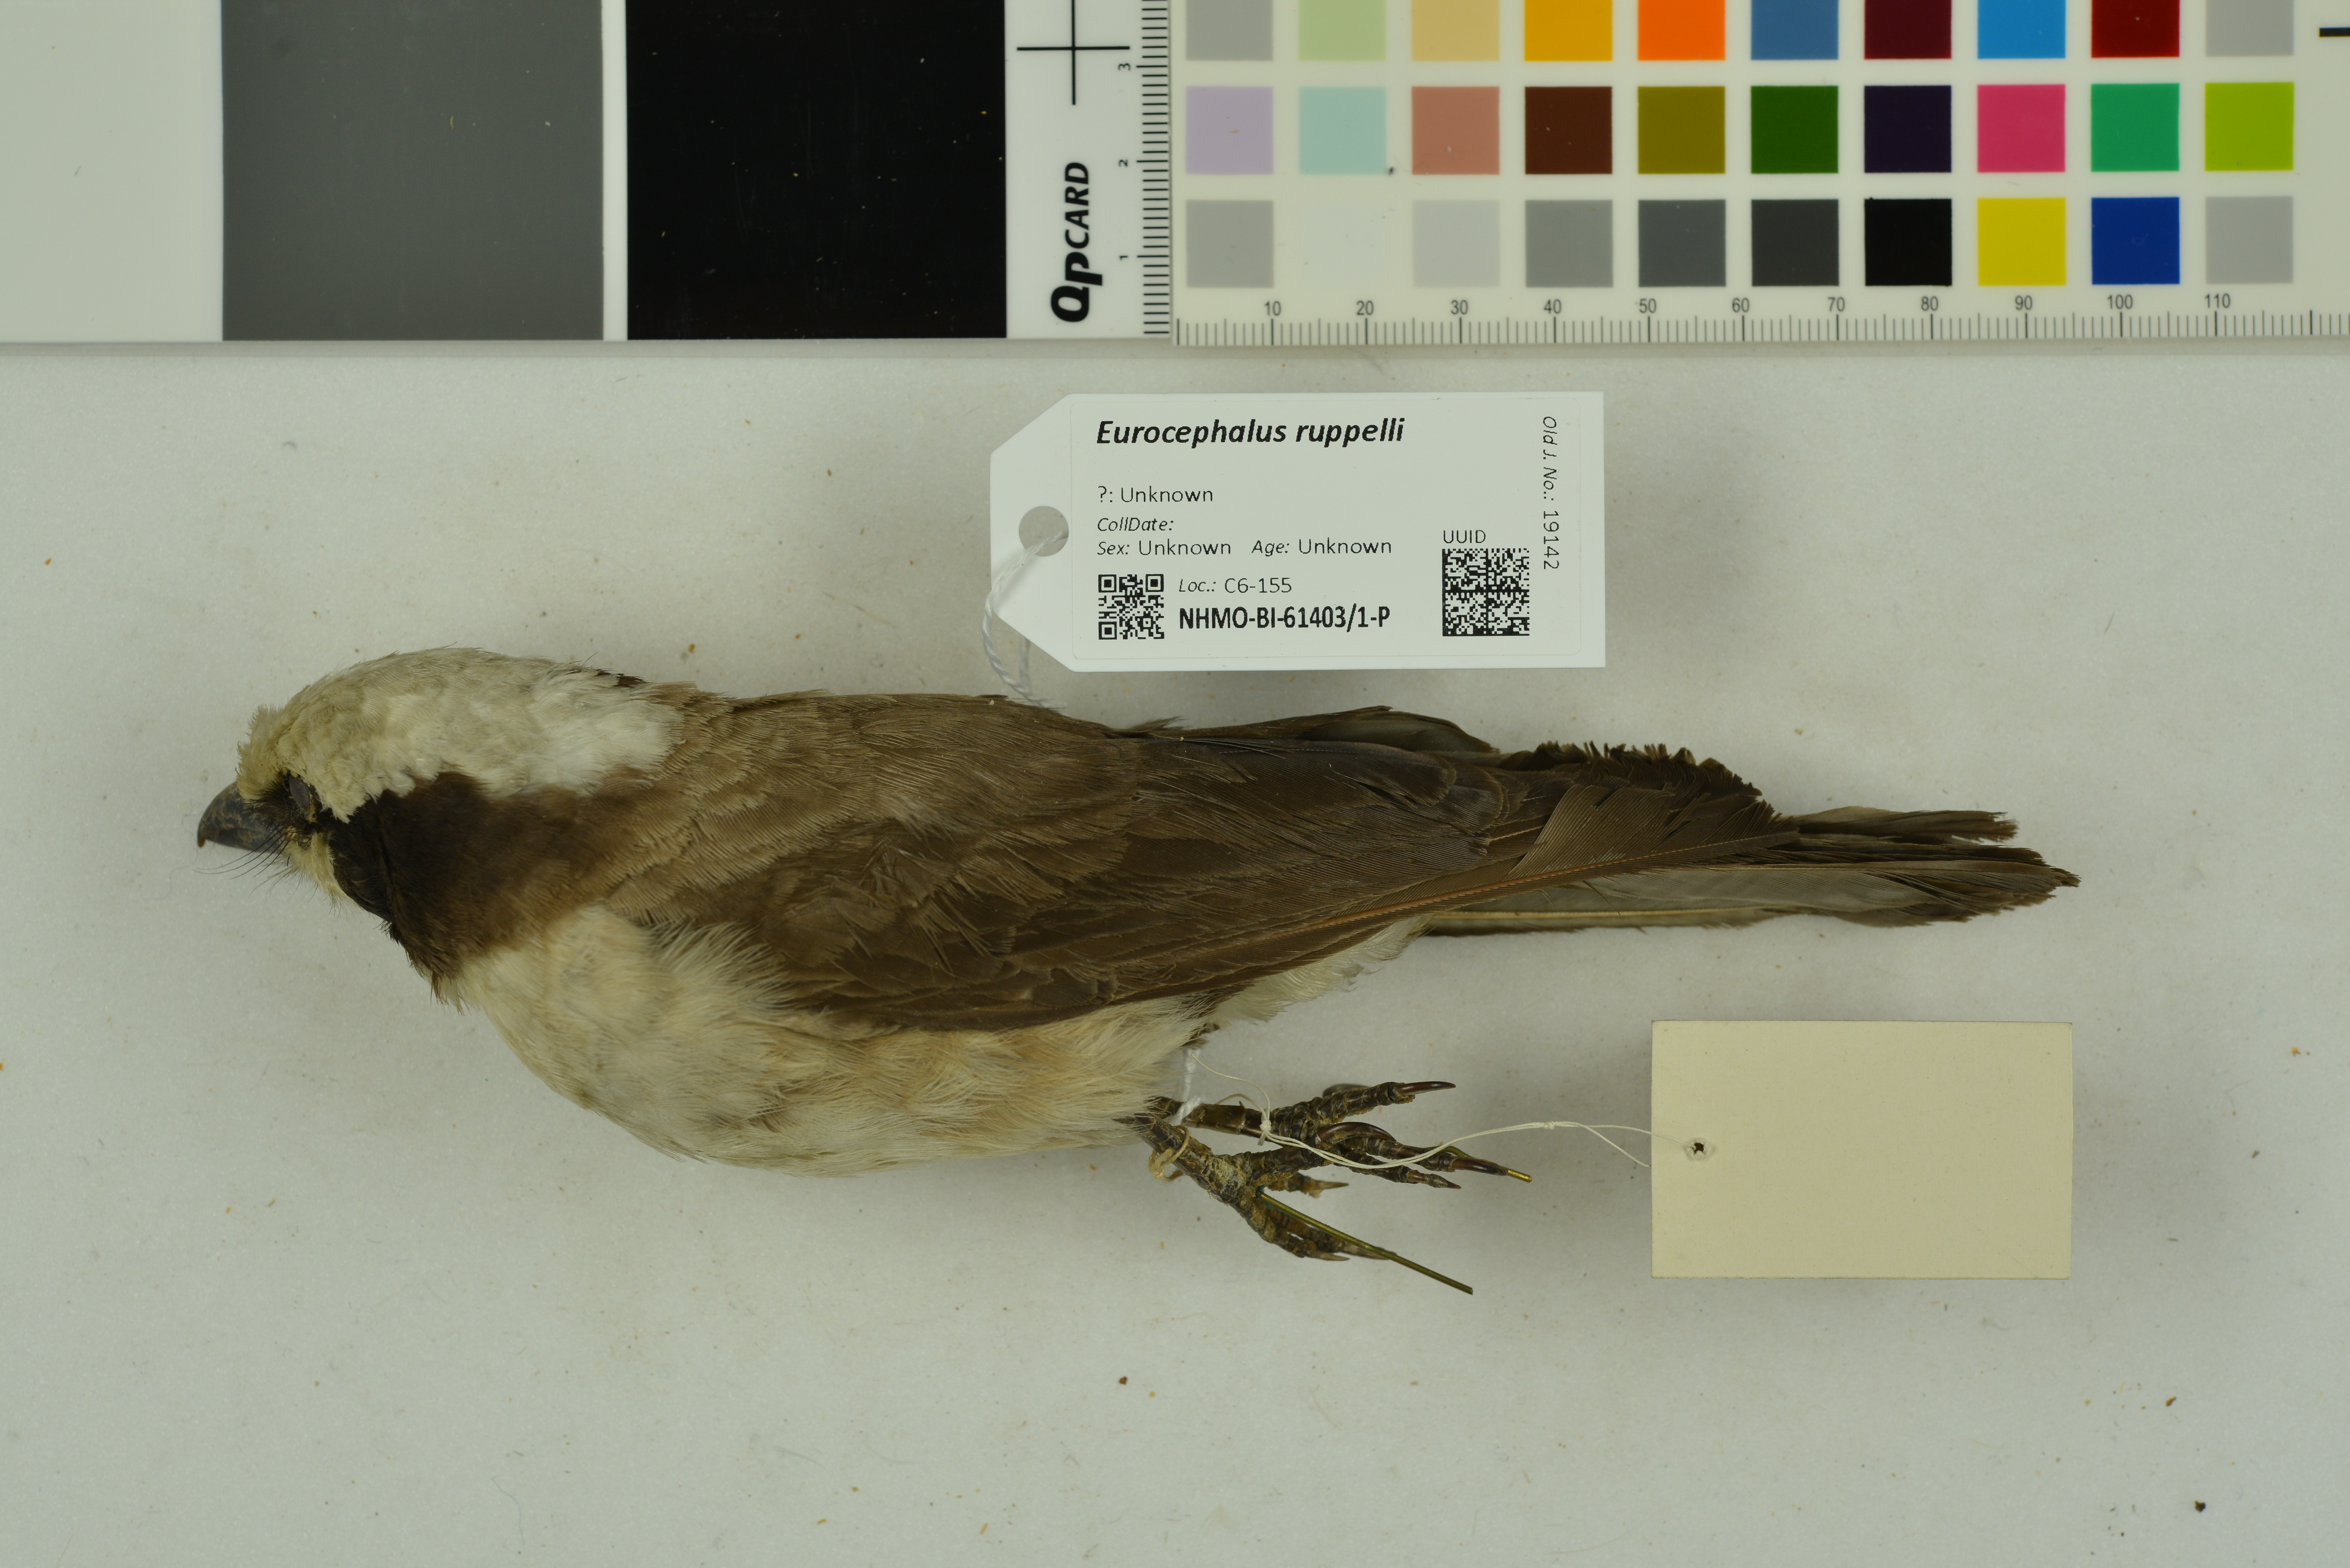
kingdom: Animalia
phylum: Chordata
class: Aves
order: Passeriformes
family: Laniidae
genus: Eurocephalus
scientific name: Eurocephalus ruppelli
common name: Northern white-crowned shrike
